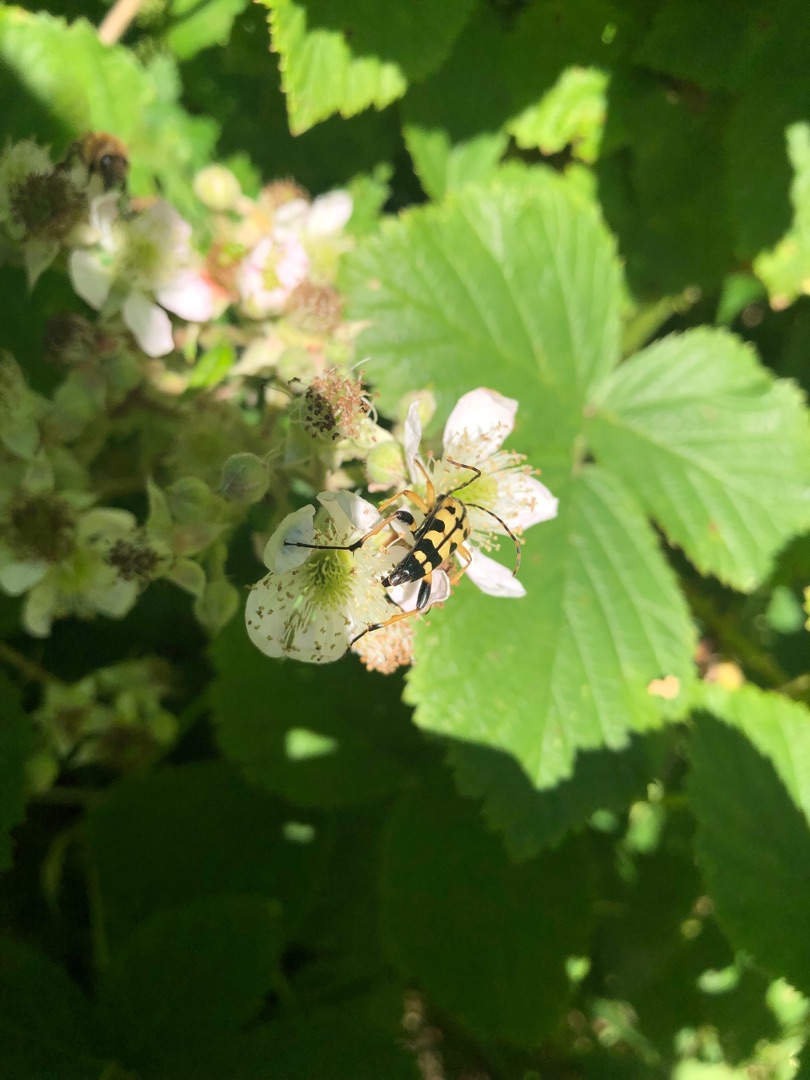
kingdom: Animalia
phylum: Arthropoda
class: Insecta
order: Coleoptera
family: Cerambycidae
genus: Rutpela
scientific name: Rutpela maculata
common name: Sydlig blomsterbuk
